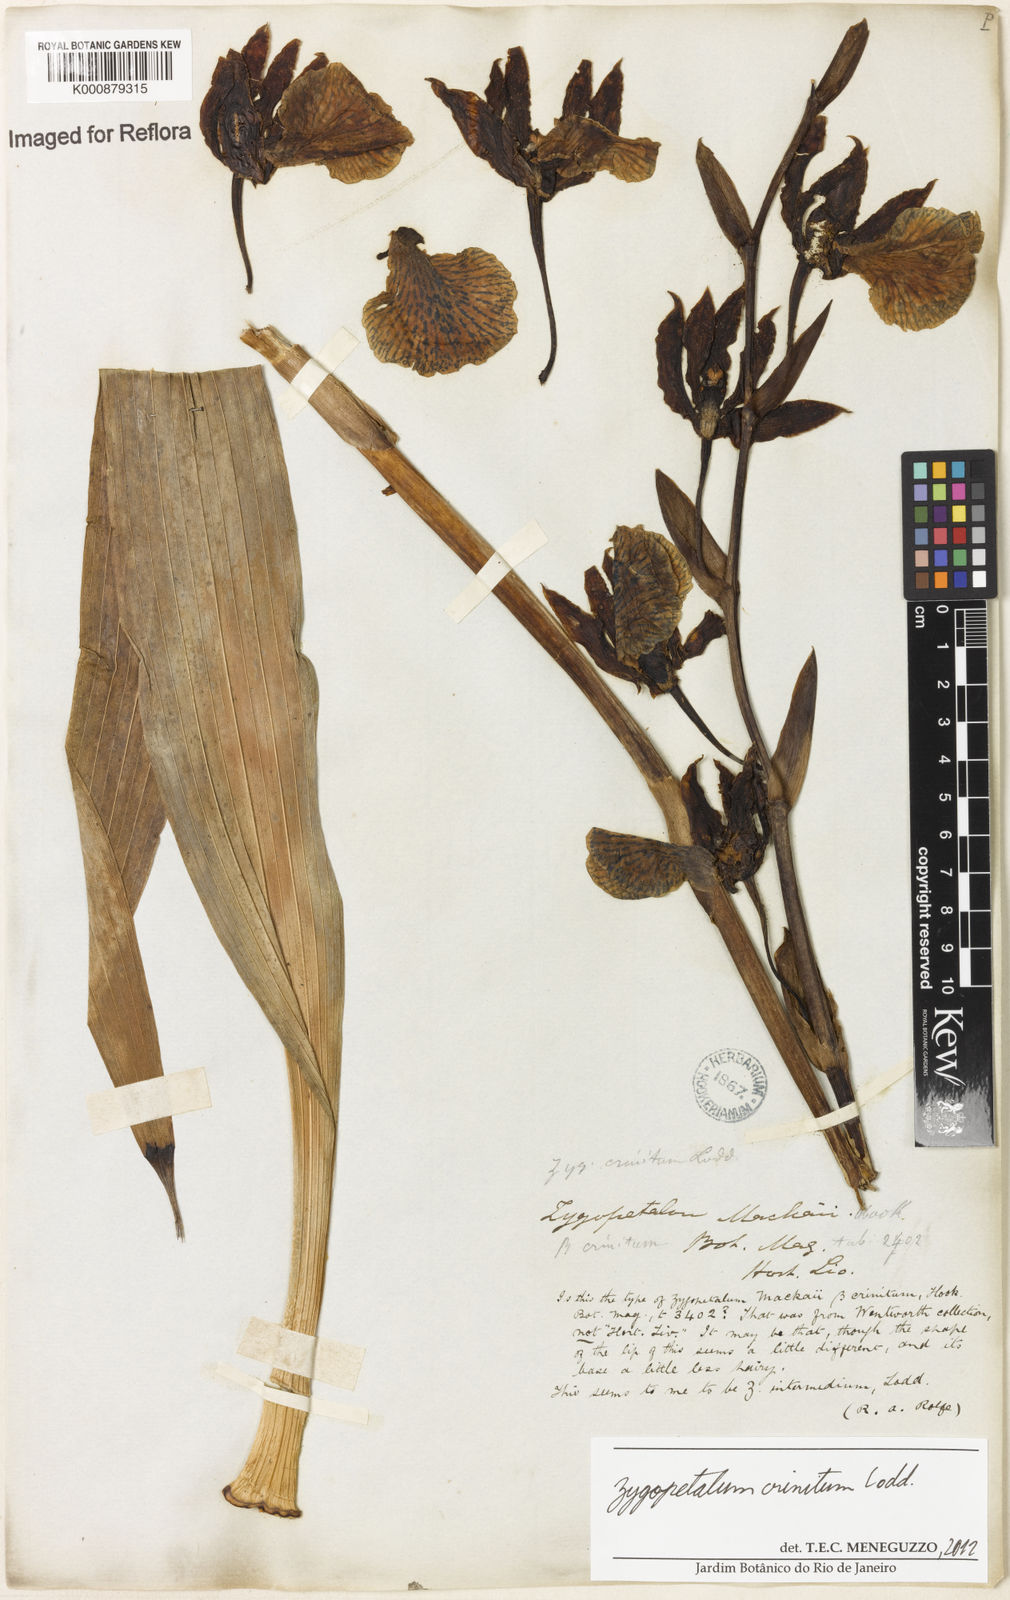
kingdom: Plantae
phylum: Tracheophyta
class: Liliopsida
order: Asparagales
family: Orchidaceae
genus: Zygopetalum
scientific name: Zygopetalum crinitum
